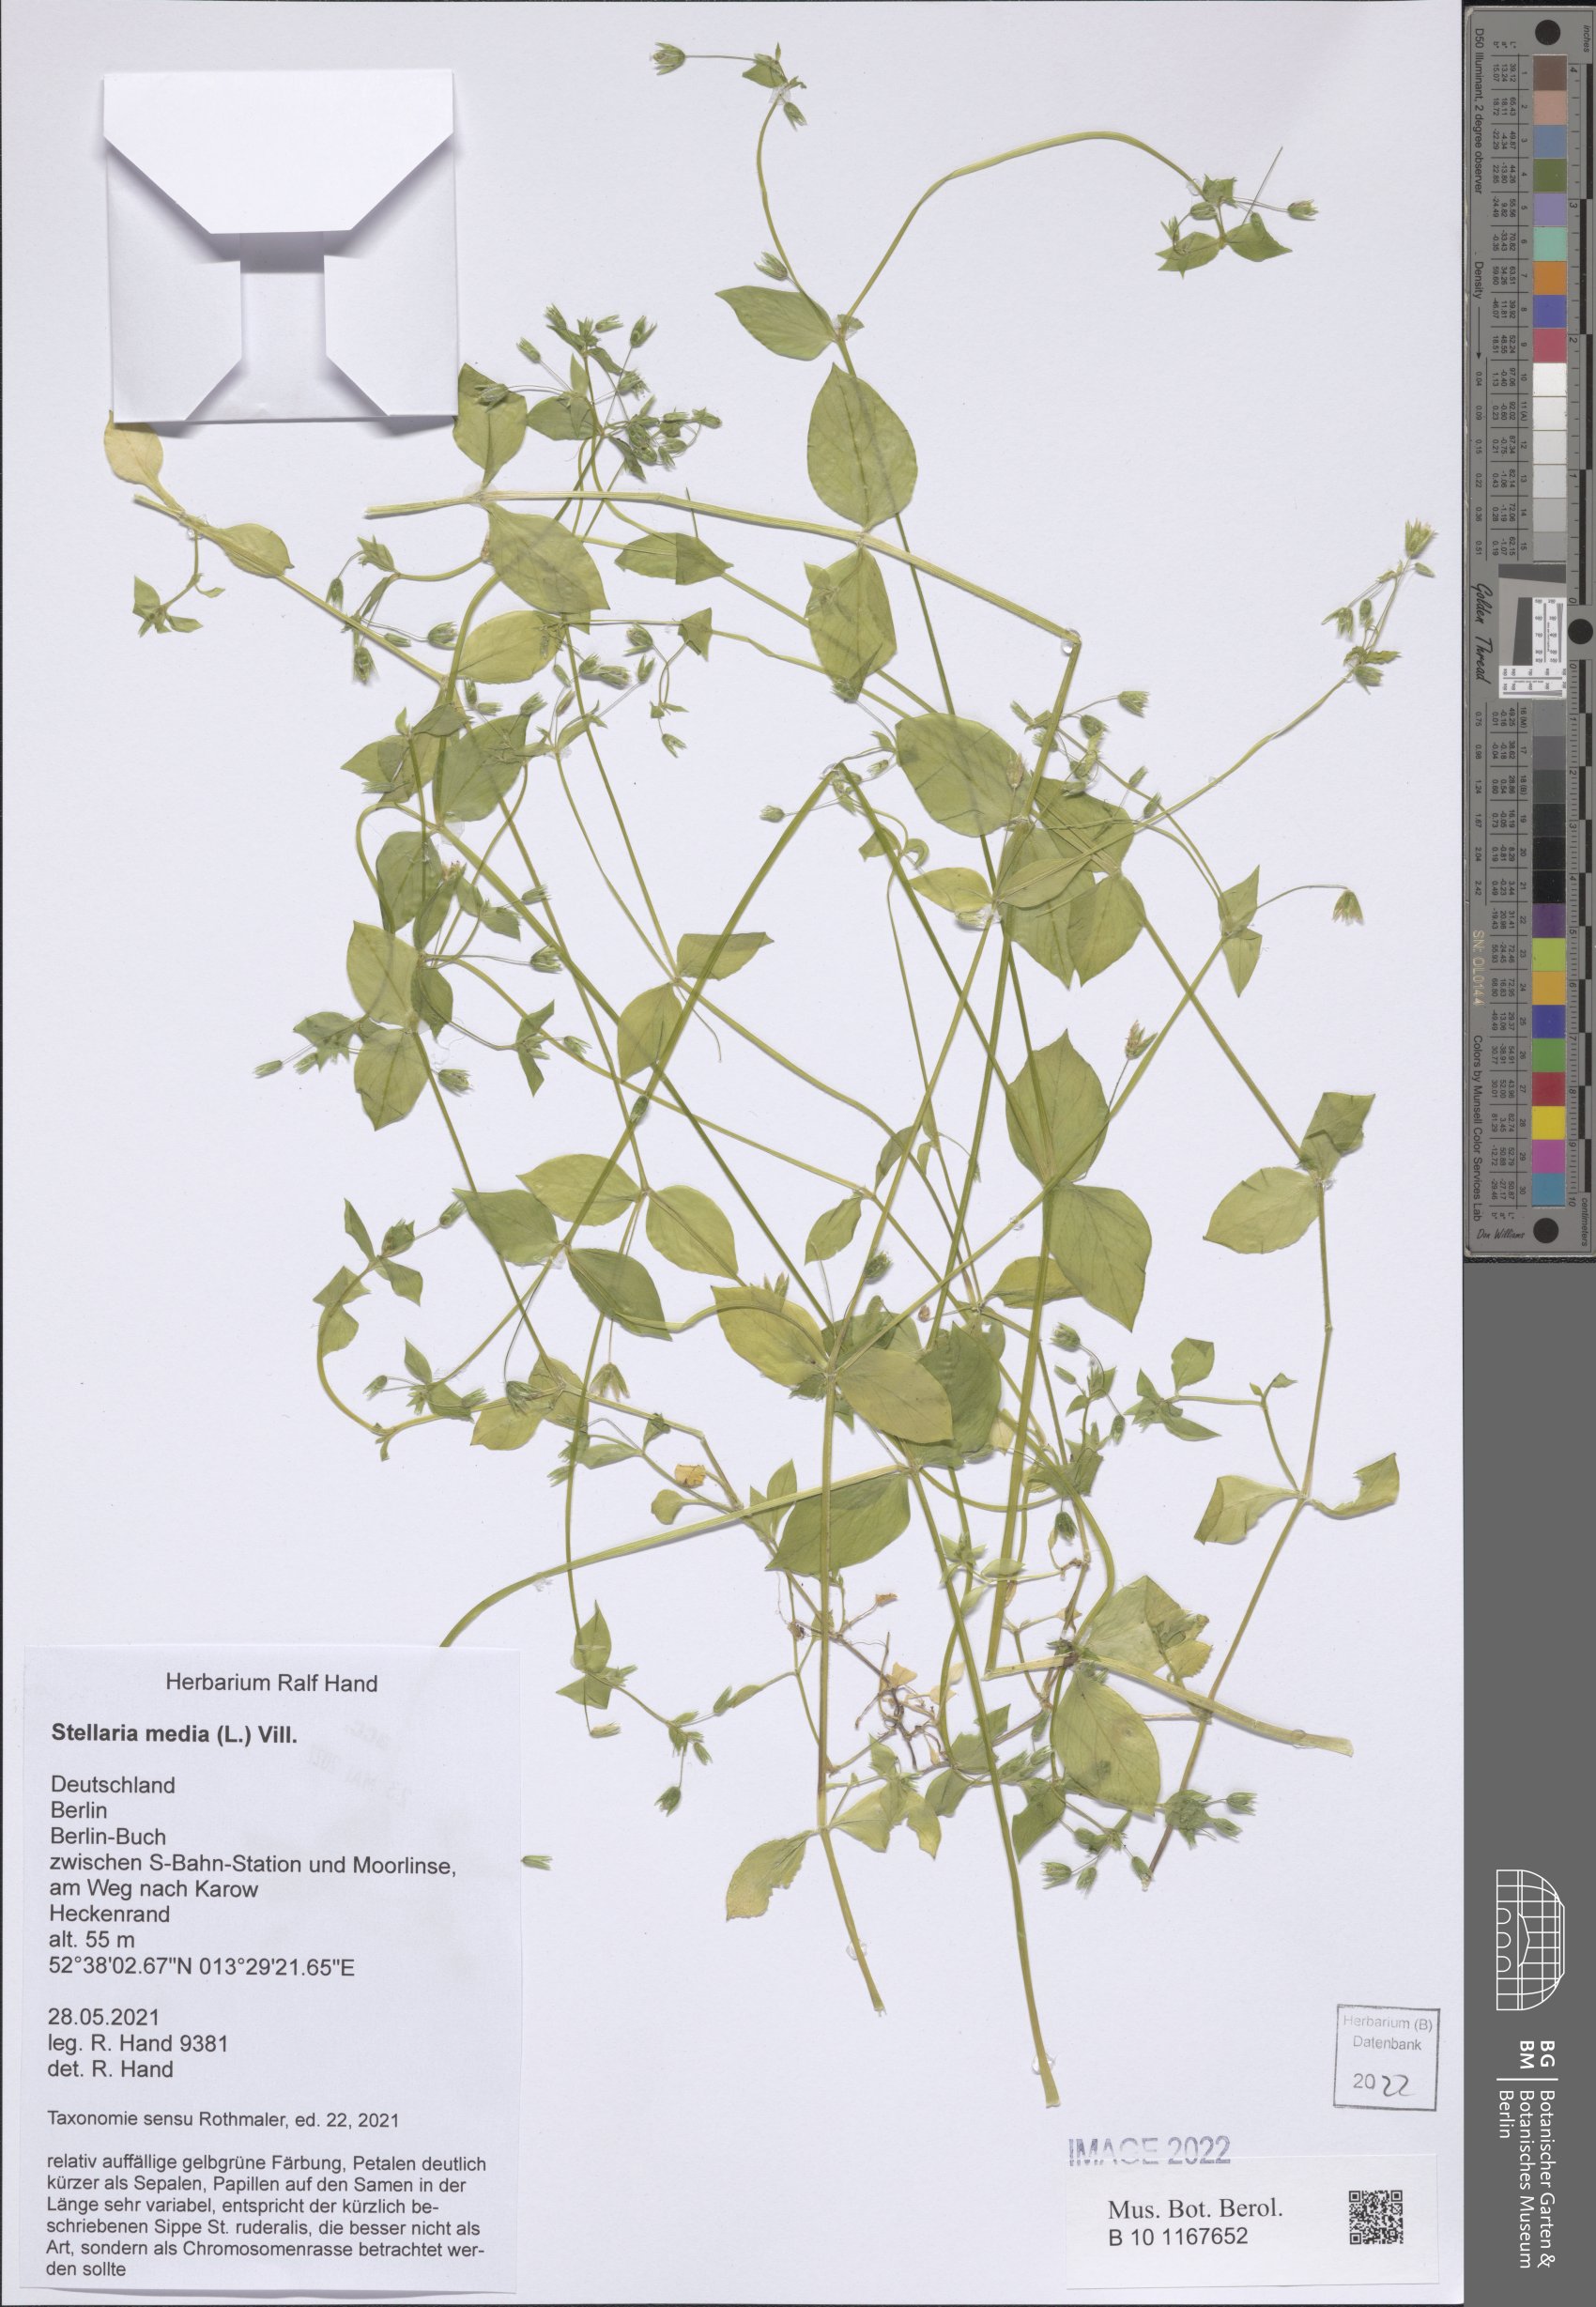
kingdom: Plantae
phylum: Tracheophyta
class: Magnoliopsida
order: Caryophyllales
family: Caryophyllaceae
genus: Stellaria
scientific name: Stellaria media
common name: Common chickweed
